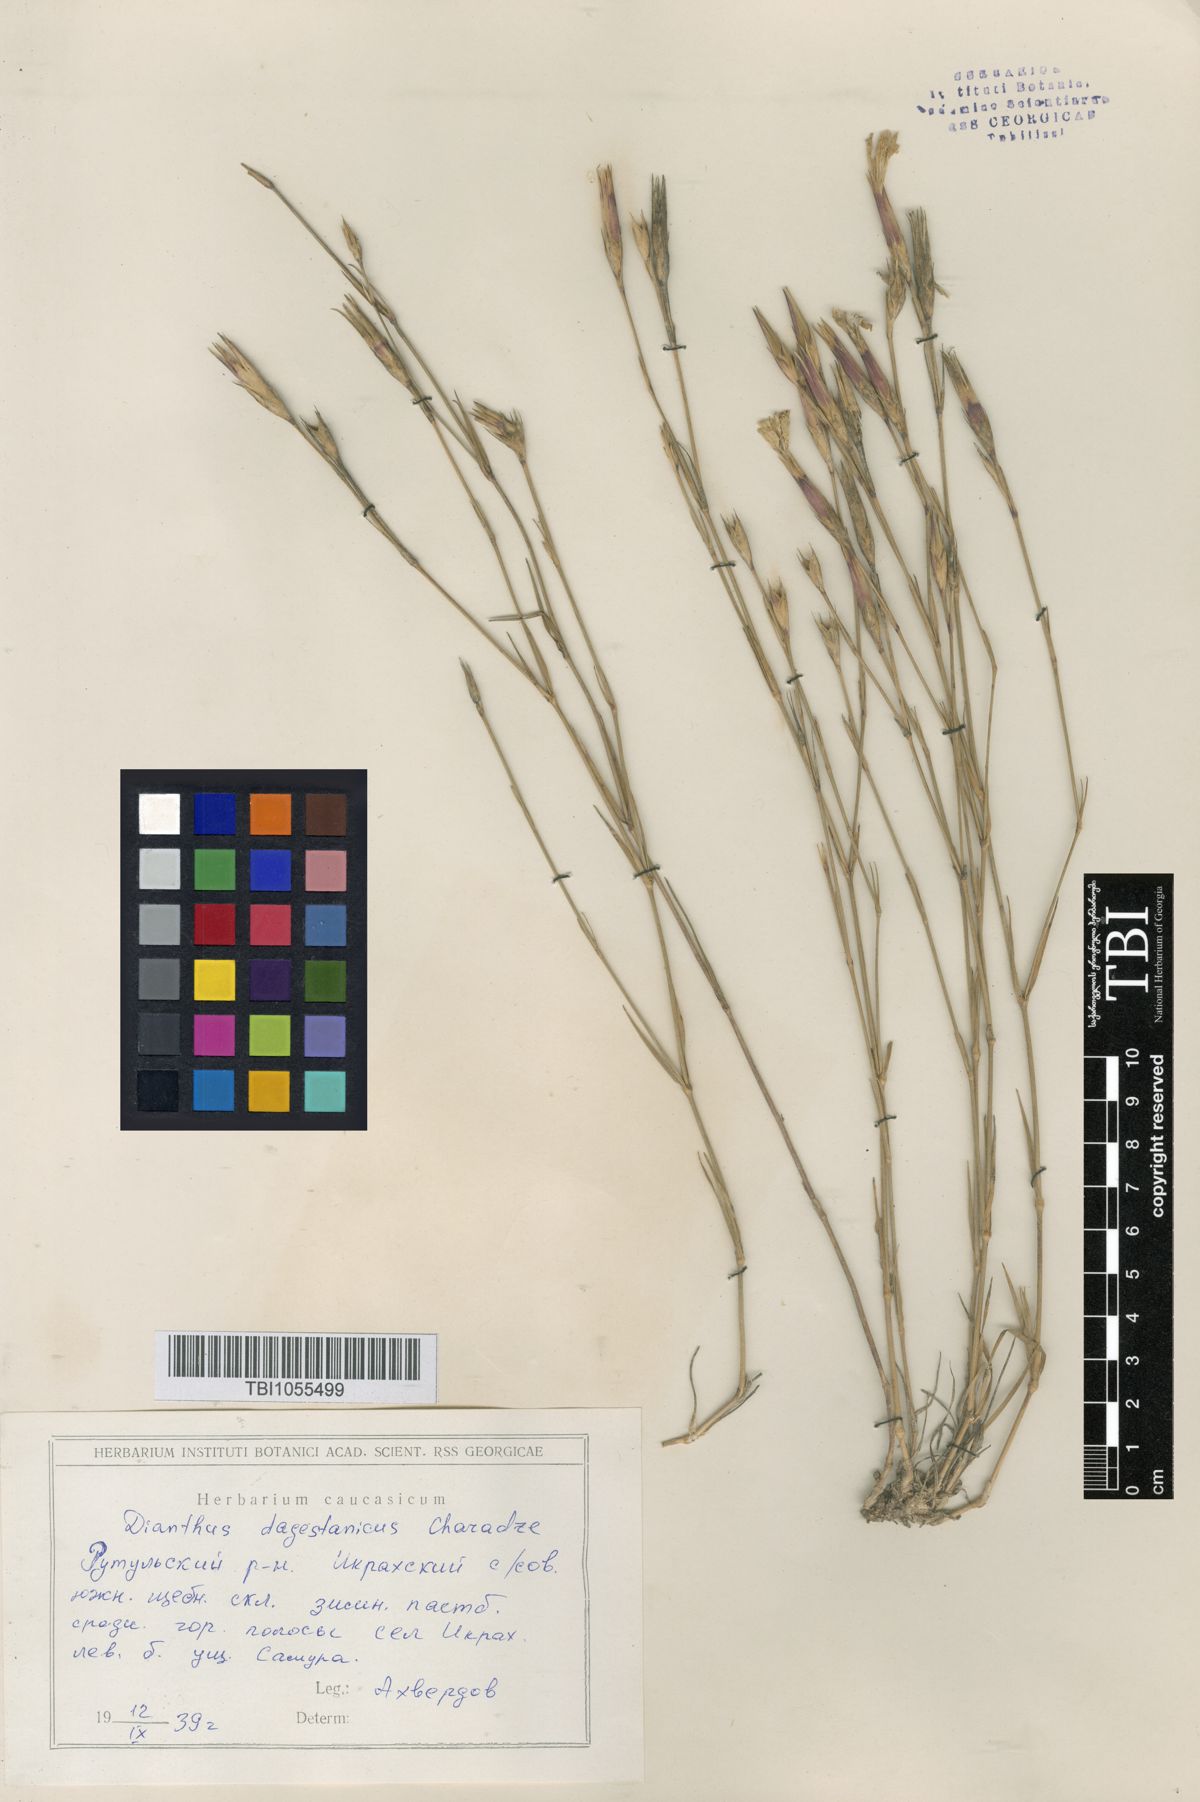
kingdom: Plantae
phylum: Tracheophyta
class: Magnoliopsida
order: Caryophyllales
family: Caryophyllaceae
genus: Dianthus
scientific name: Dianthus daghestanicus
